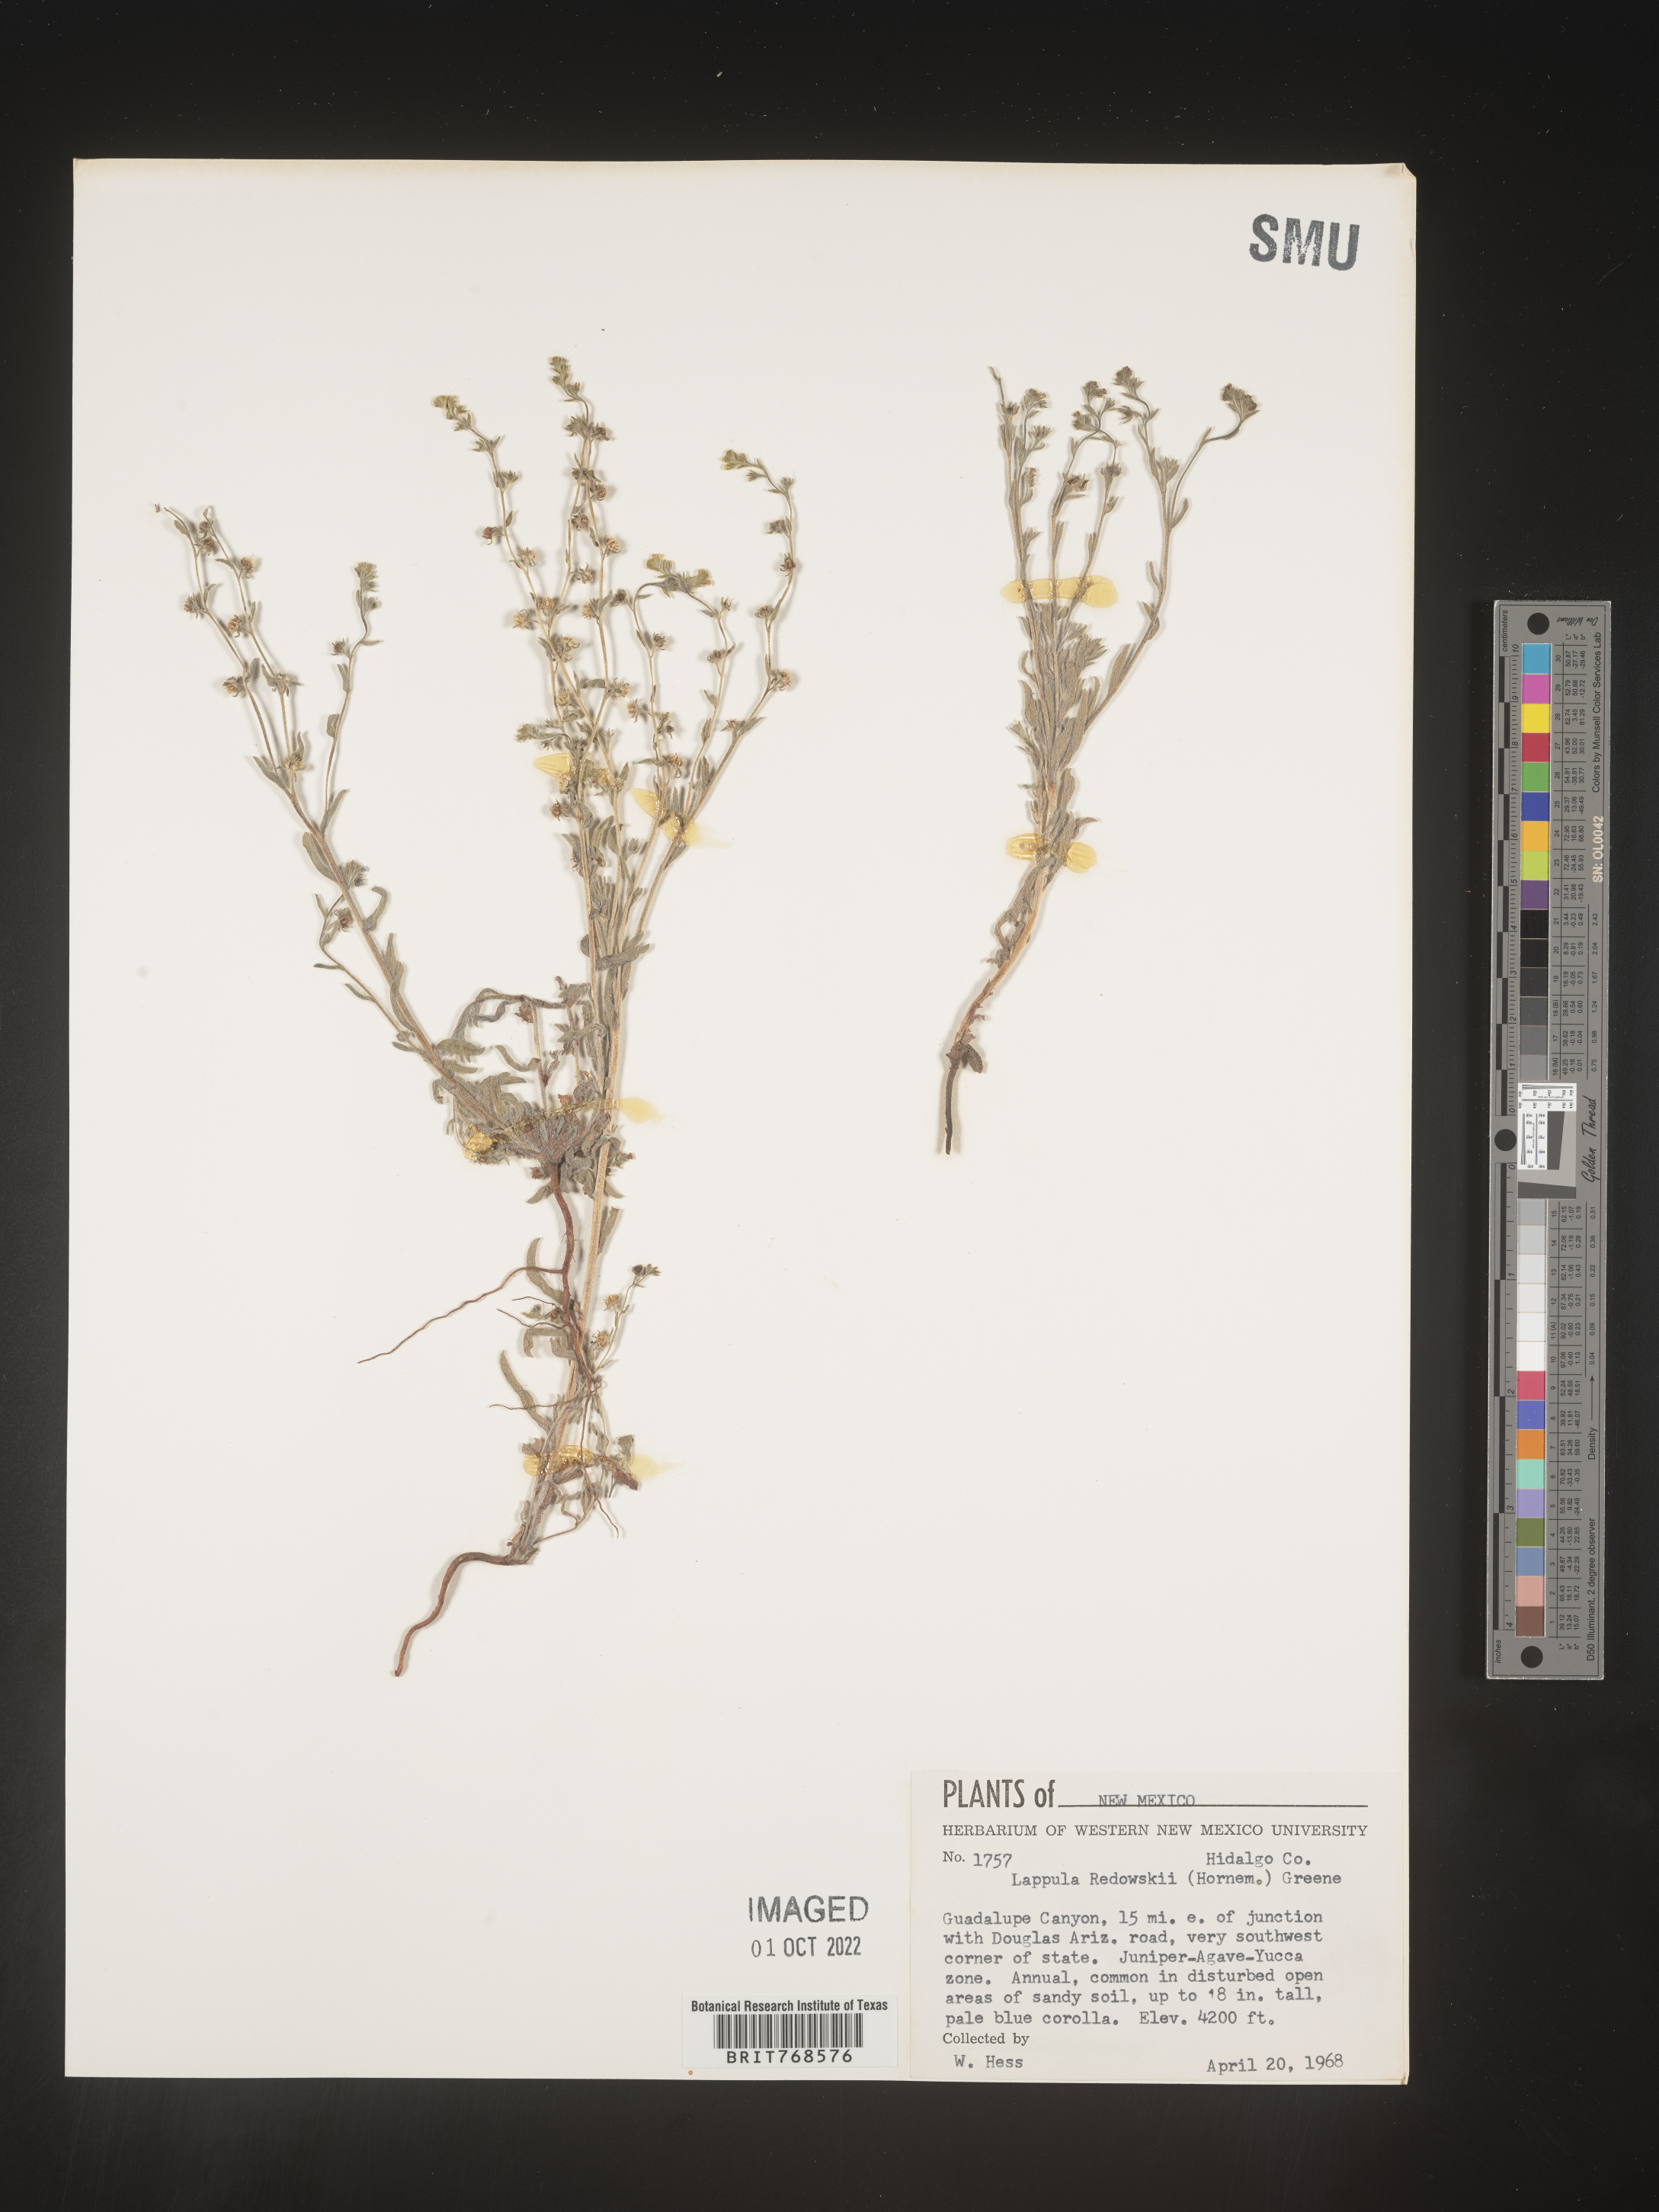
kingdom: Plantae
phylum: Tracheophyta
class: Magnoliopsida
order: Boraginales
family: Boraginaceae
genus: Lappula
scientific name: Lappula redowskii
